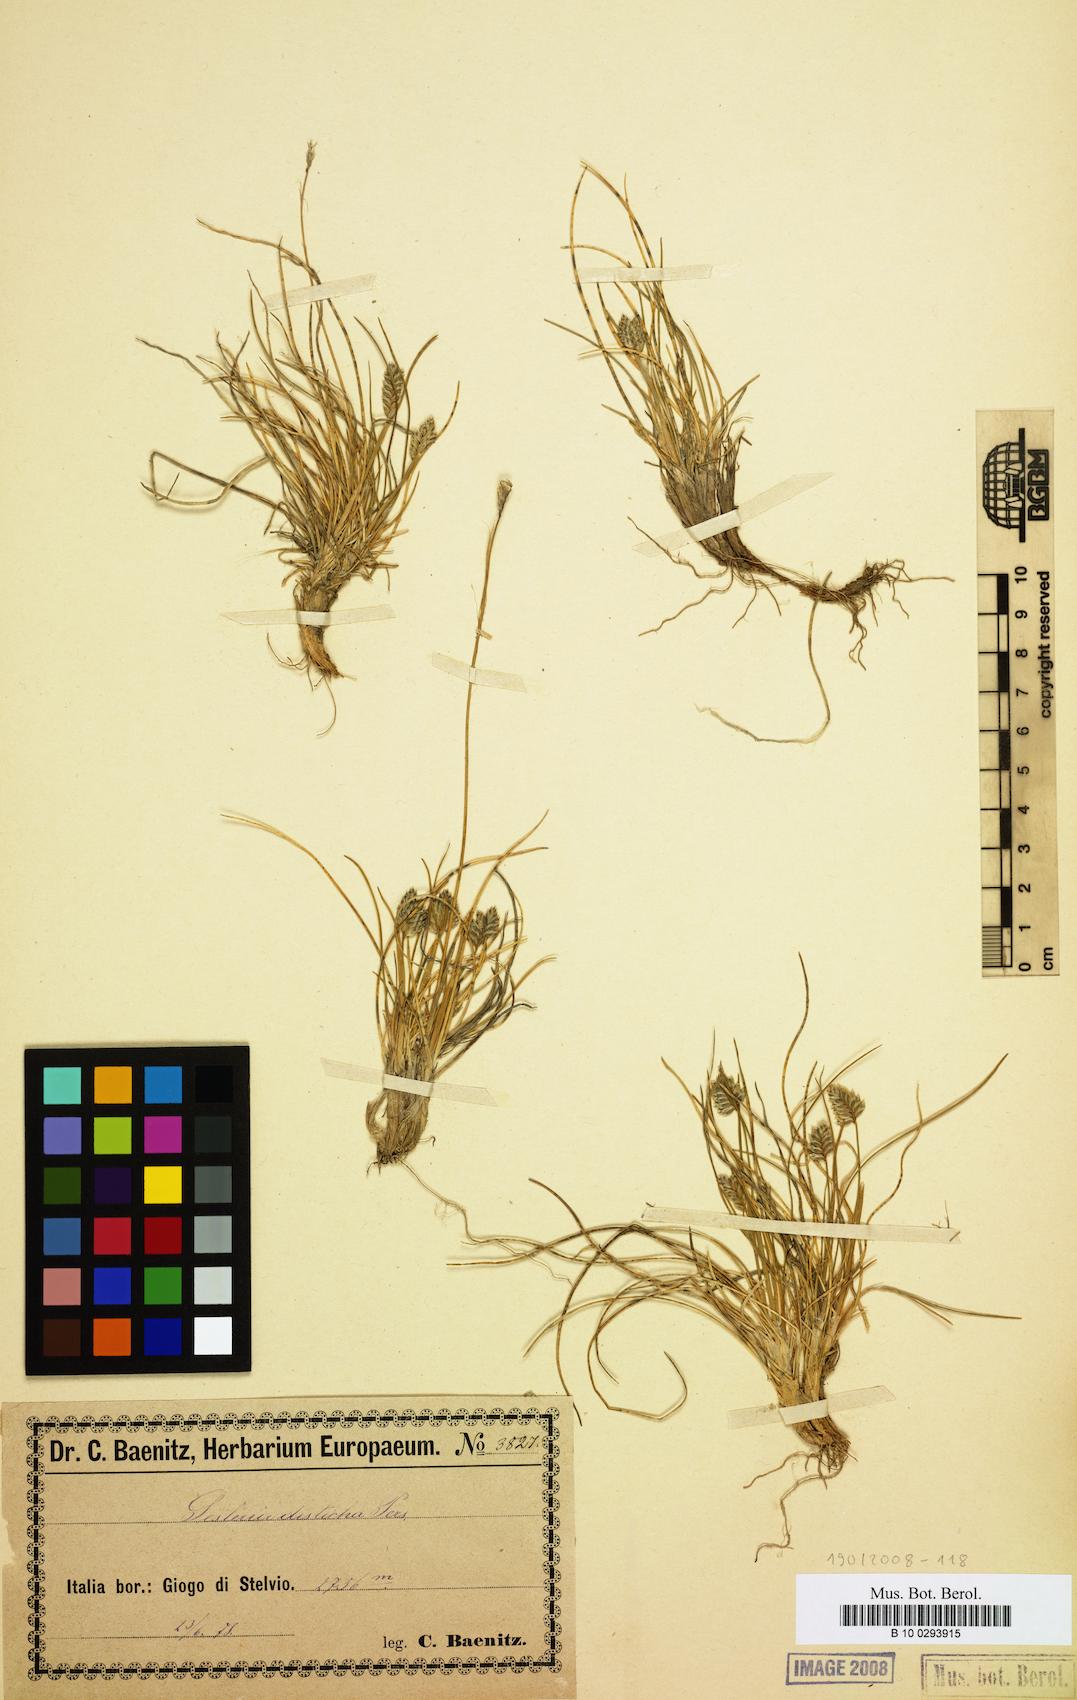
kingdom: Plantae
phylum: Tracheophyta
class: Liliopsida
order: Poales
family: Poaceae
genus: Oreochloa
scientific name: Oreochloa disticha
